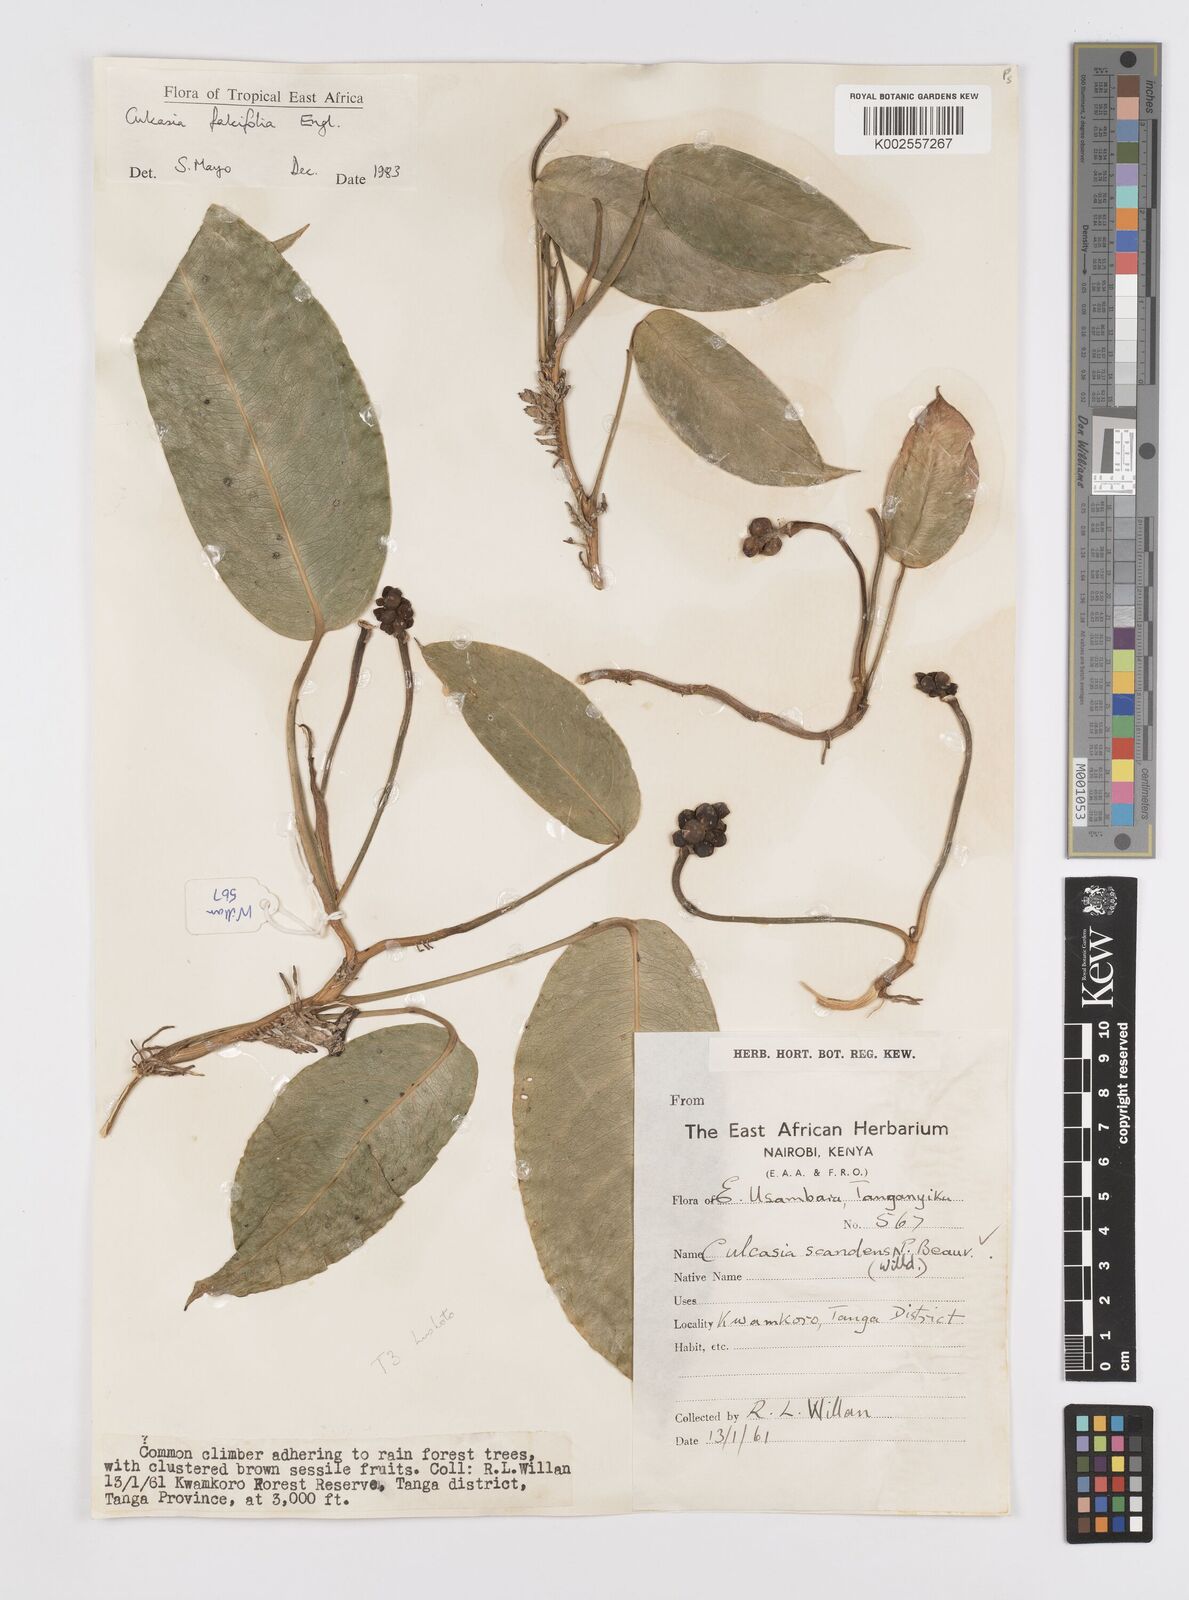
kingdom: Plantae
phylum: Tracheophyta
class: Liliopsida
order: Alismatales
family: Araceae
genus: Culcasia
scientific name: Culcasia falcifolia
